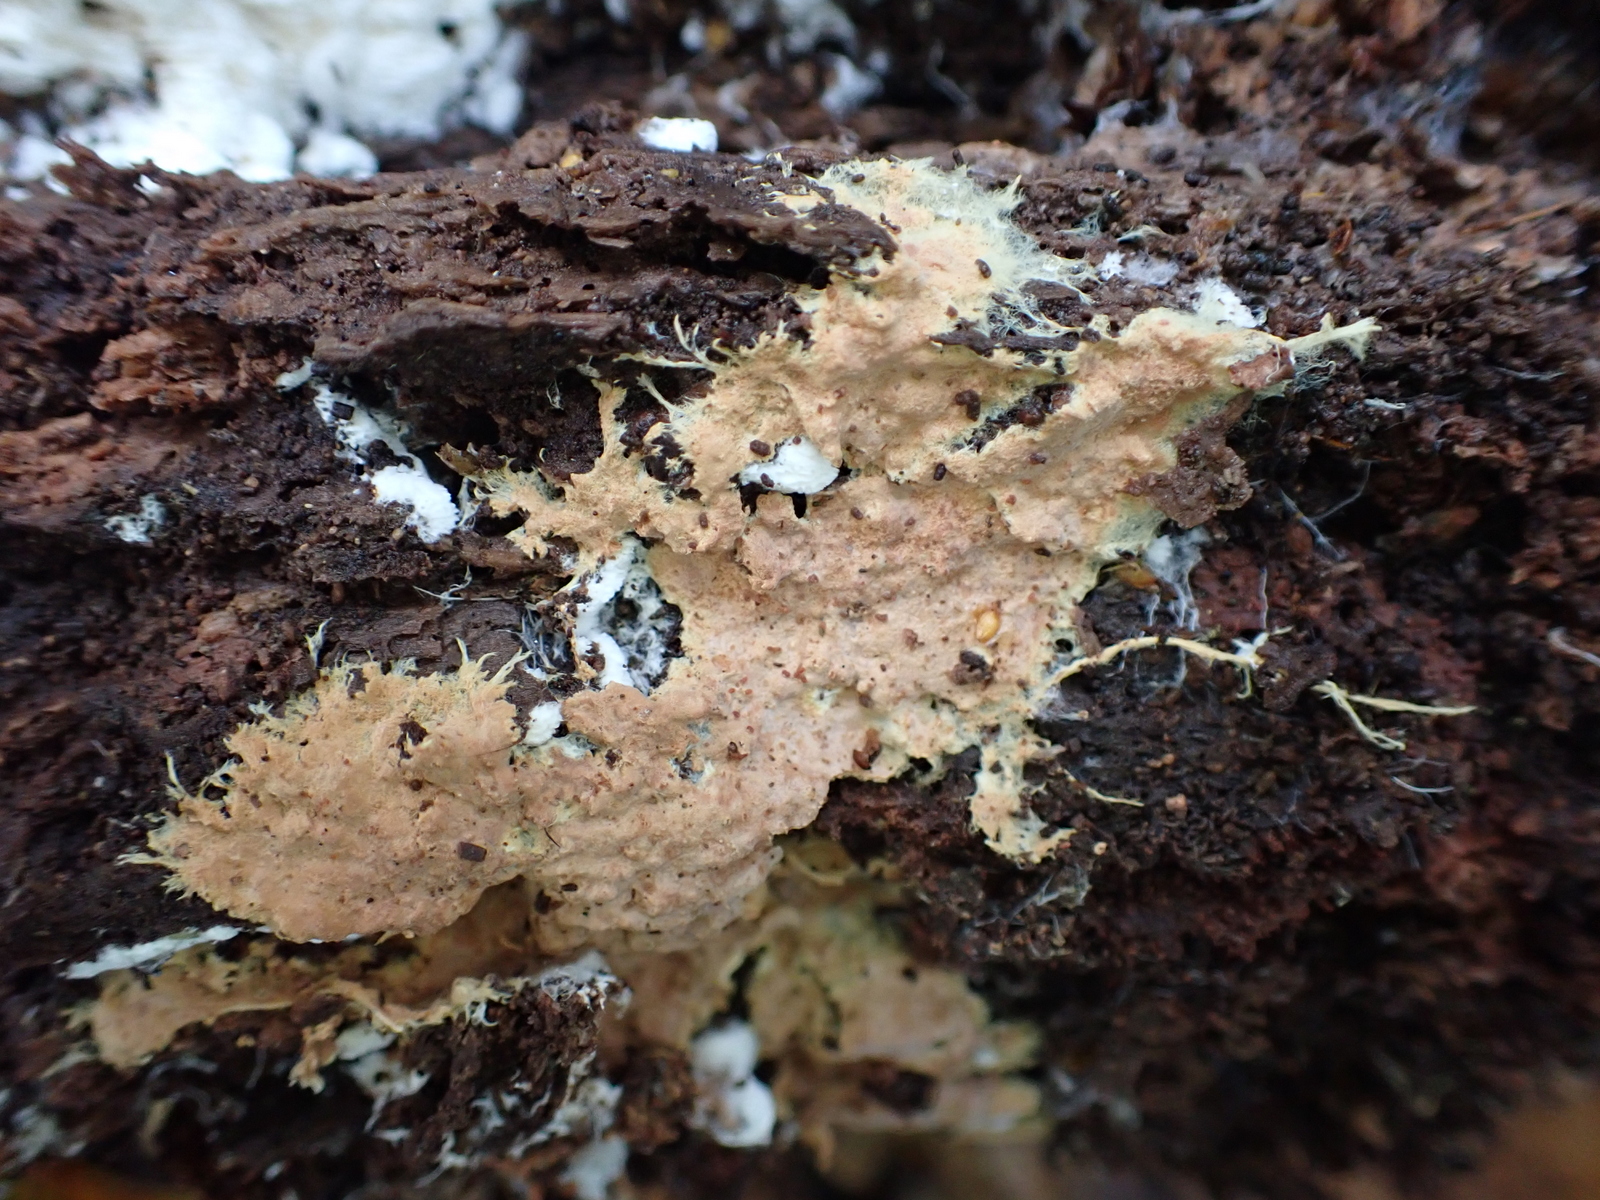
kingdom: Fungi
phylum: Basidiomycota
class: Agaricomycetes
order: Polyporales
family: Steccherinaceae
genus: Steccherinum
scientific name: Steccherinum fimbriatum
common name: trådet skønpig
